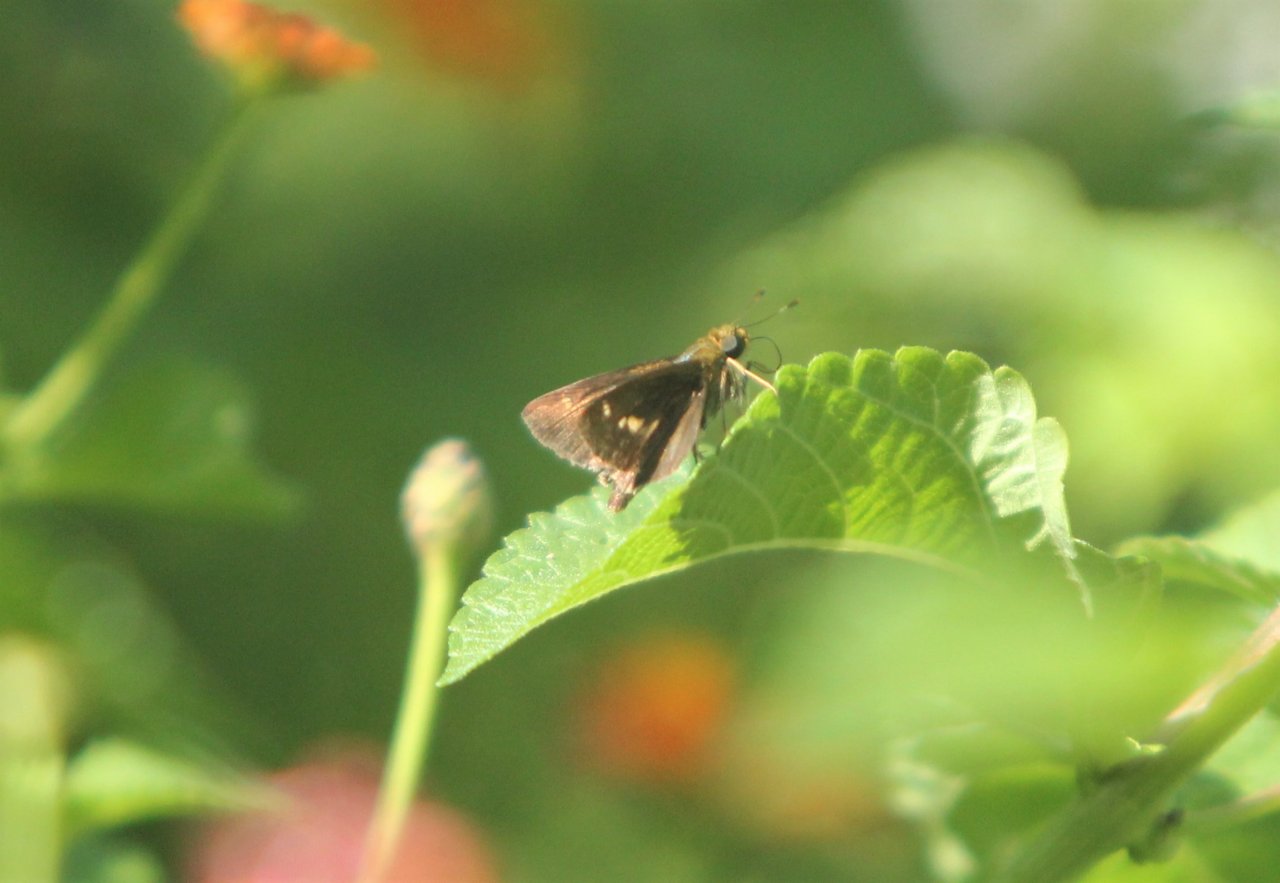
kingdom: Animalia
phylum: Arthropoda
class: Insecta
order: Lepidoptera
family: Hesperiidae
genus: Vernia
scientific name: Vernia verna
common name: Little Glassywing
